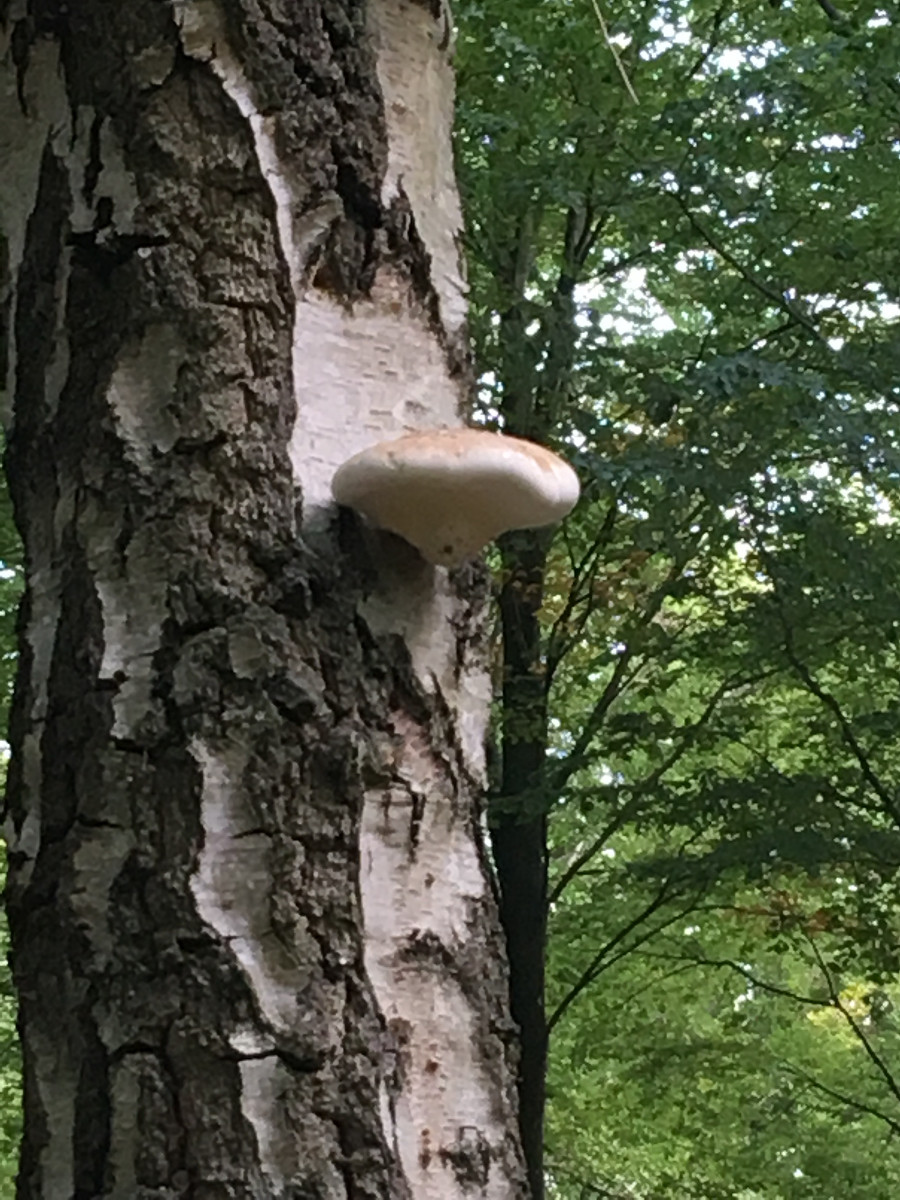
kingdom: Fungi
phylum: Basidiomycota
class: Agaricomycetes
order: Polyporales
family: Fomitopsidaceae
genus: Fomitopsis
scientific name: Fomitopsis betulina
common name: birkeporesvamp
